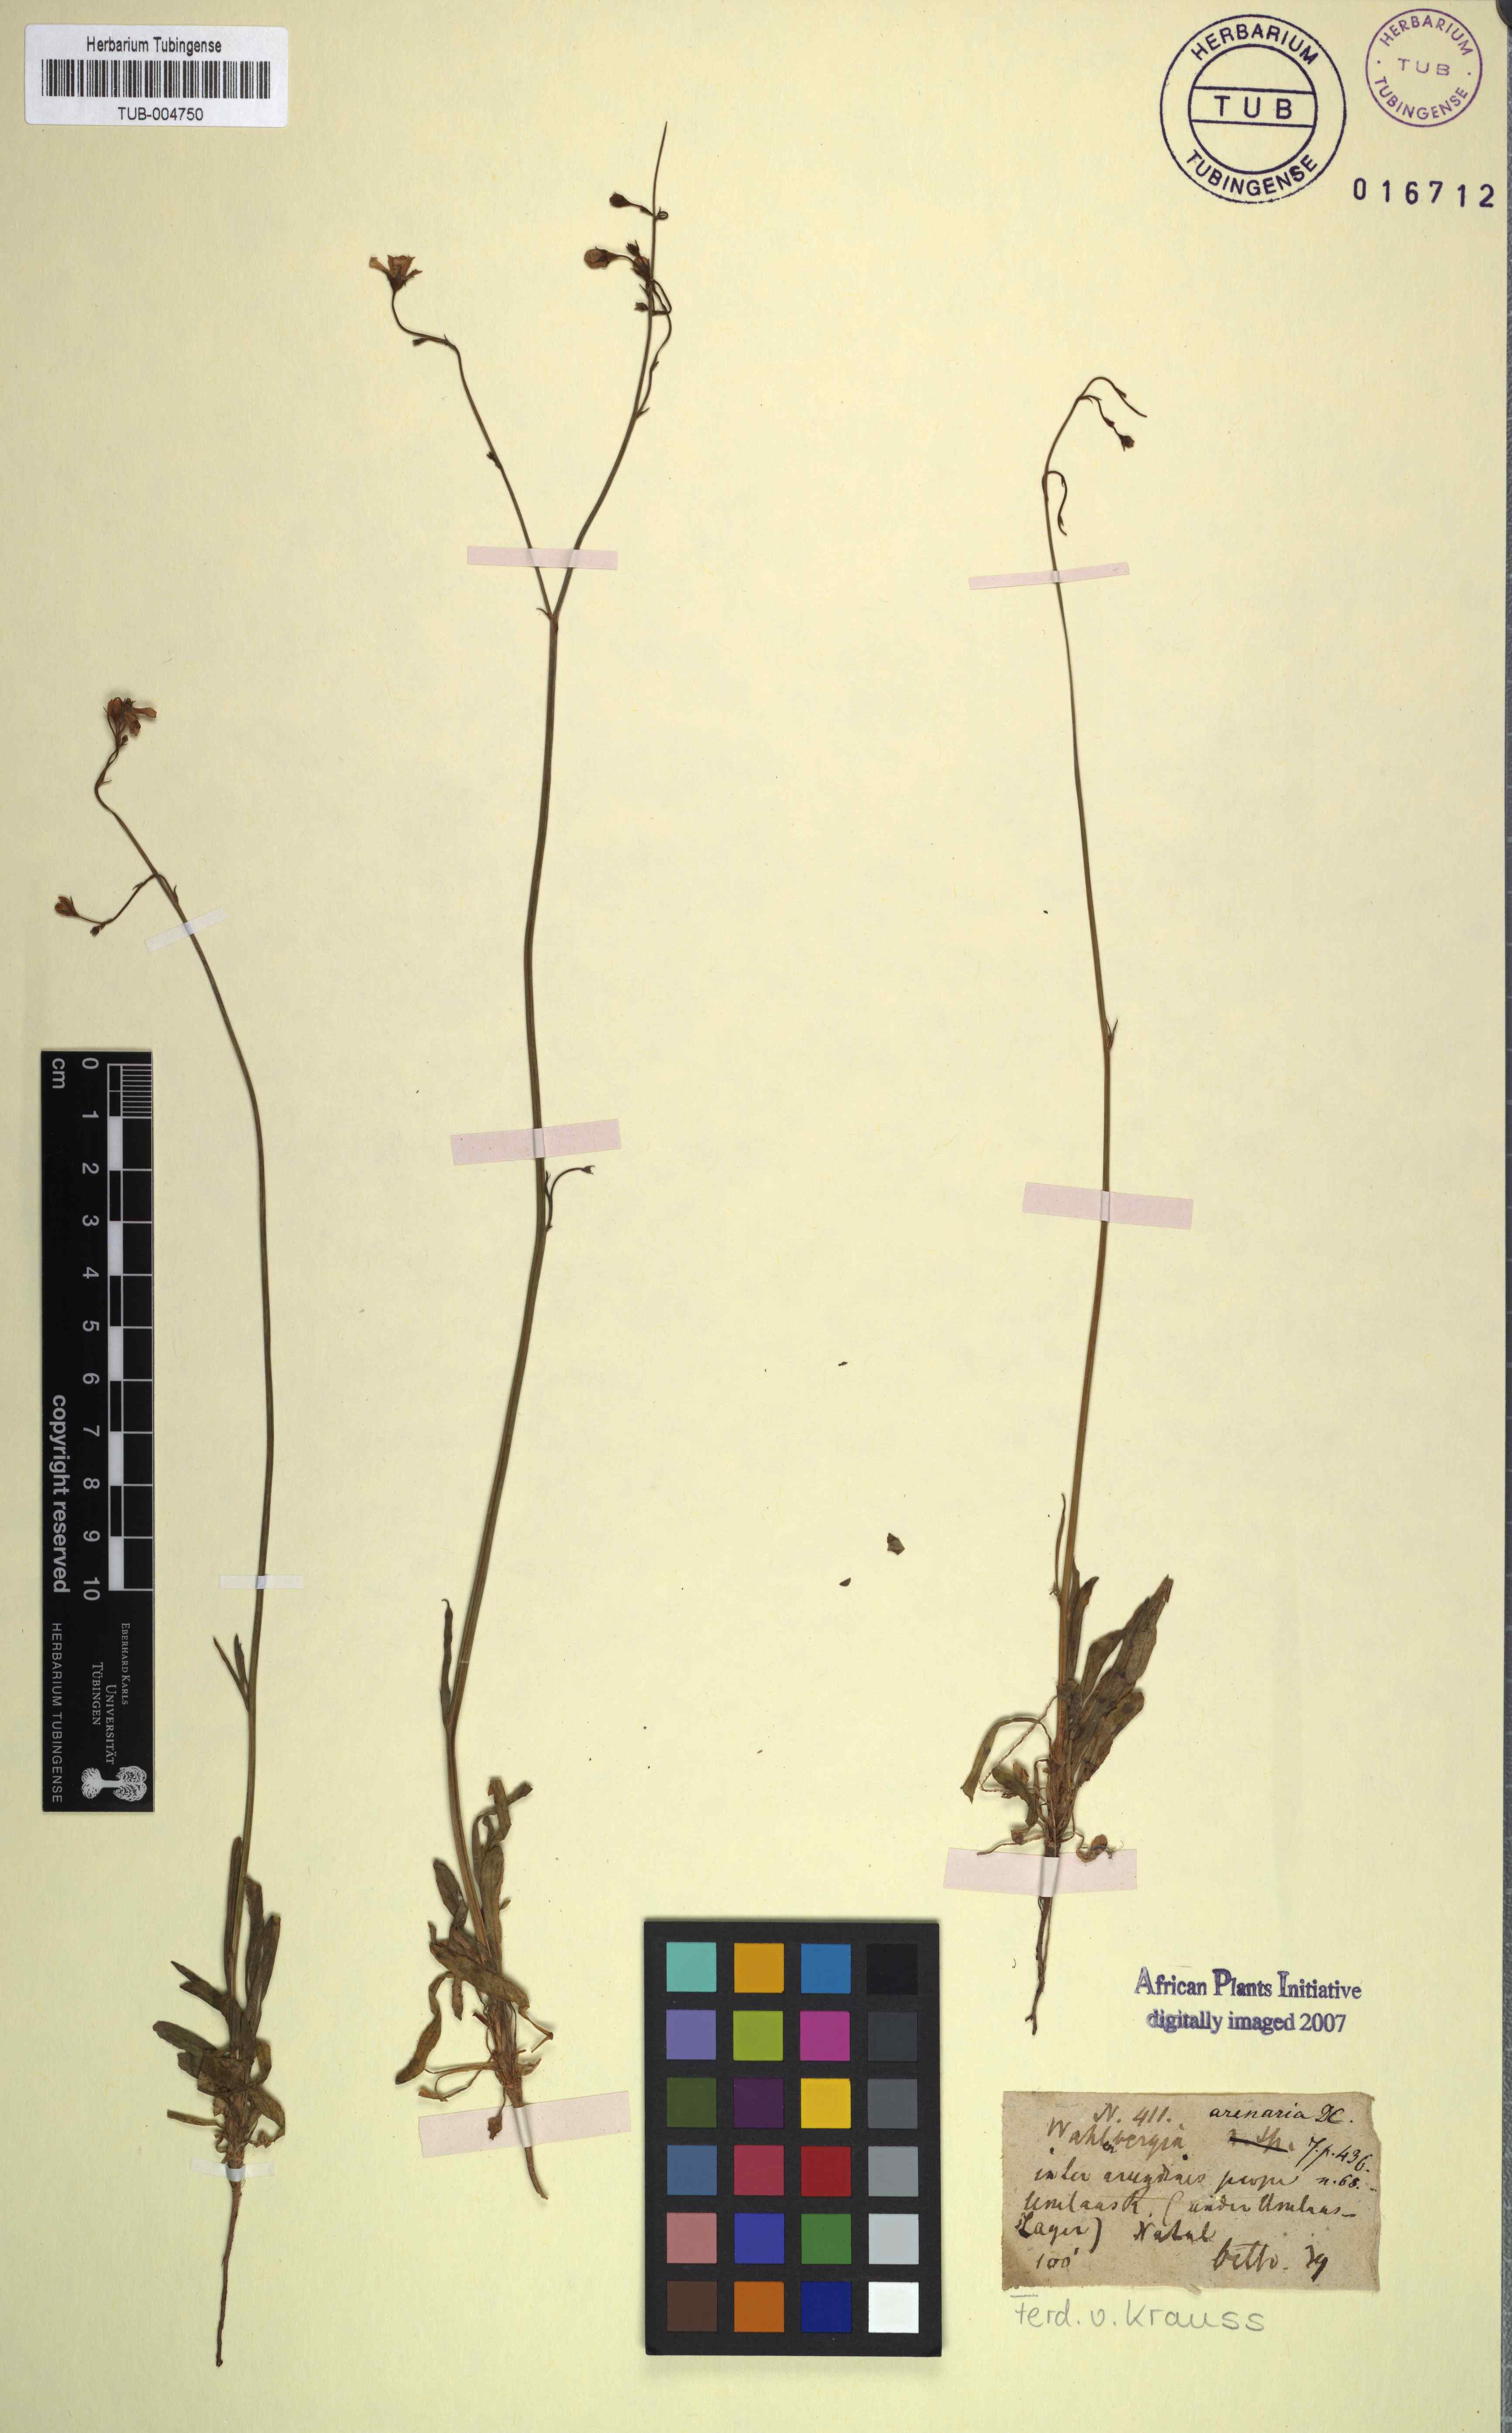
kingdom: Plantae
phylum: Tracheophyta
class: Magnoliopsida
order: Asterales
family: Campanulaceae
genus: Wahlenbergia
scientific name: Wahlenbergia androsacea
